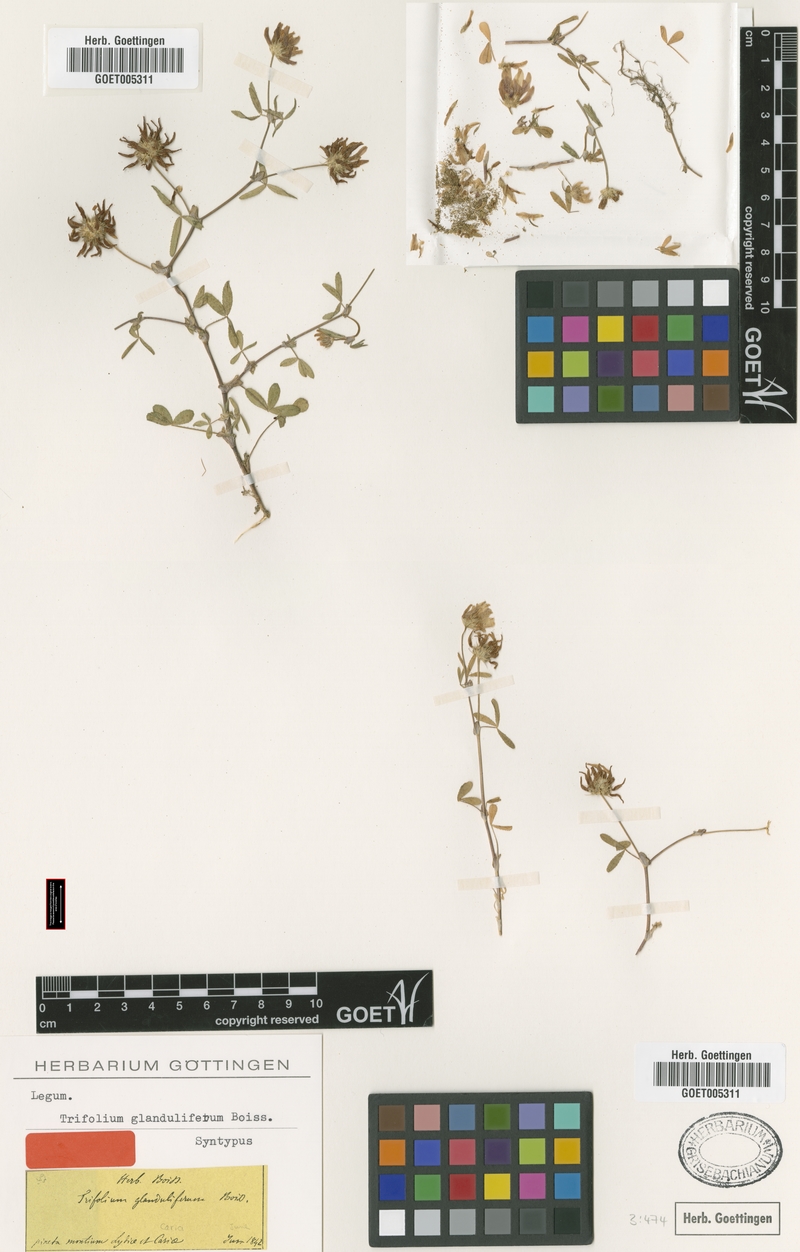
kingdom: Plantae
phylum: Tracheophyta
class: Magnoliopsida
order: Fabales
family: Fabaceae
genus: Trifolium
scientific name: Trifolium glanduliferum
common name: Glandular clover
